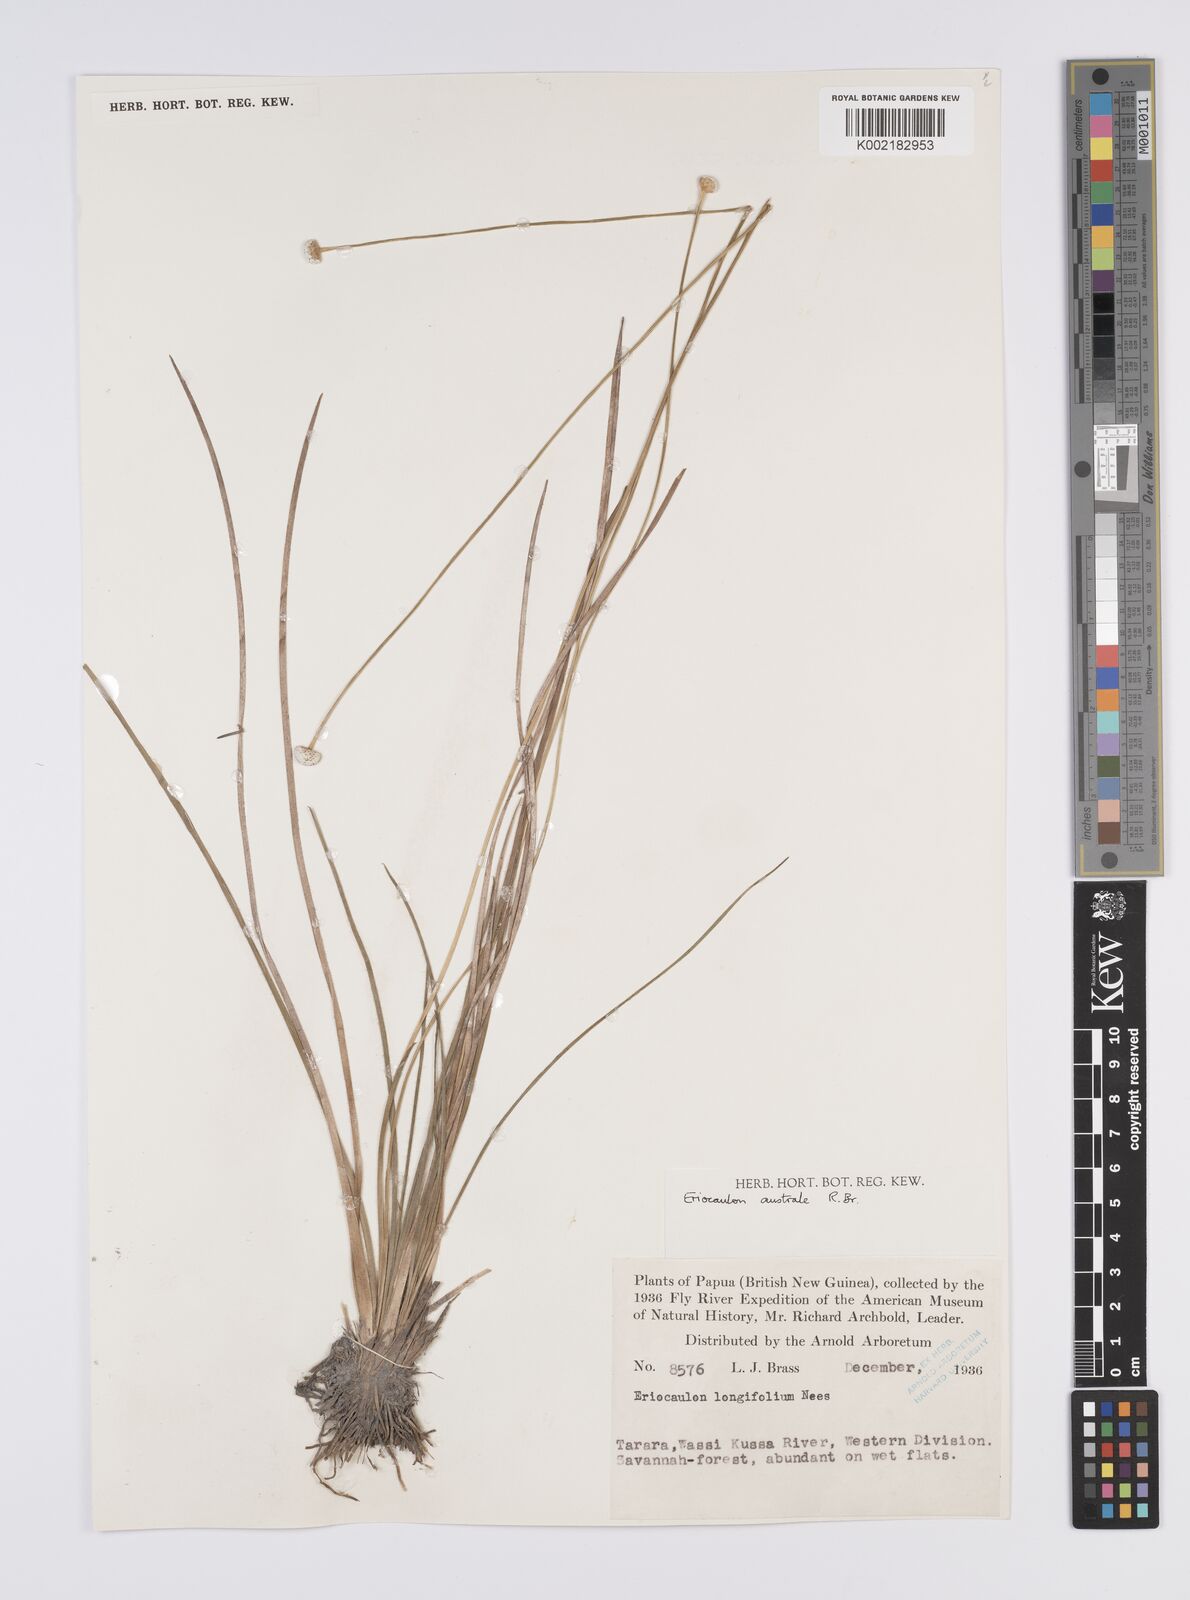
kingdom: Plantae
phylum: Tracheophyta
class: Liliopsida
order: Poales
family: Eriocaulaceae
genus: Eriocaulon
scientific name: Eriocaulon australe
